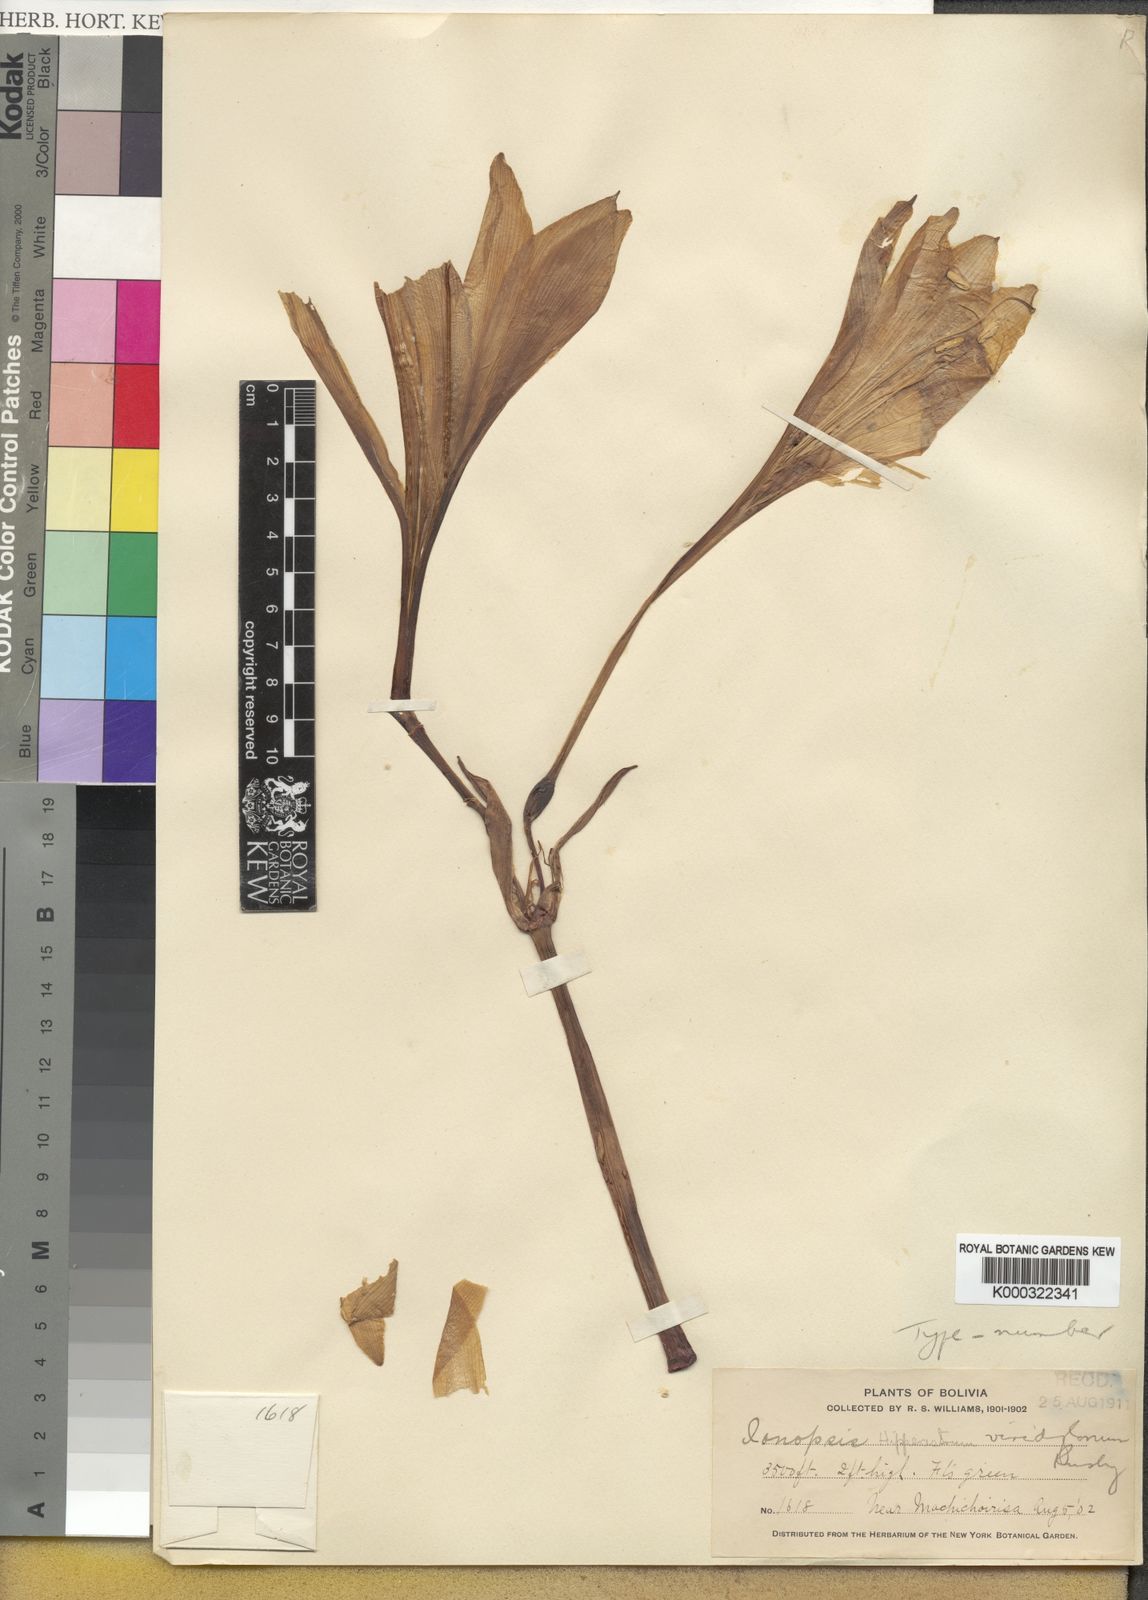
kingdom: Plantae
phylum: Tracheophyta
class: Liliopsida
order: Asparagales
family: Amaryllidaceae
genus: Hippeastrum
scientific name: Hippeastrum viridiflorum
